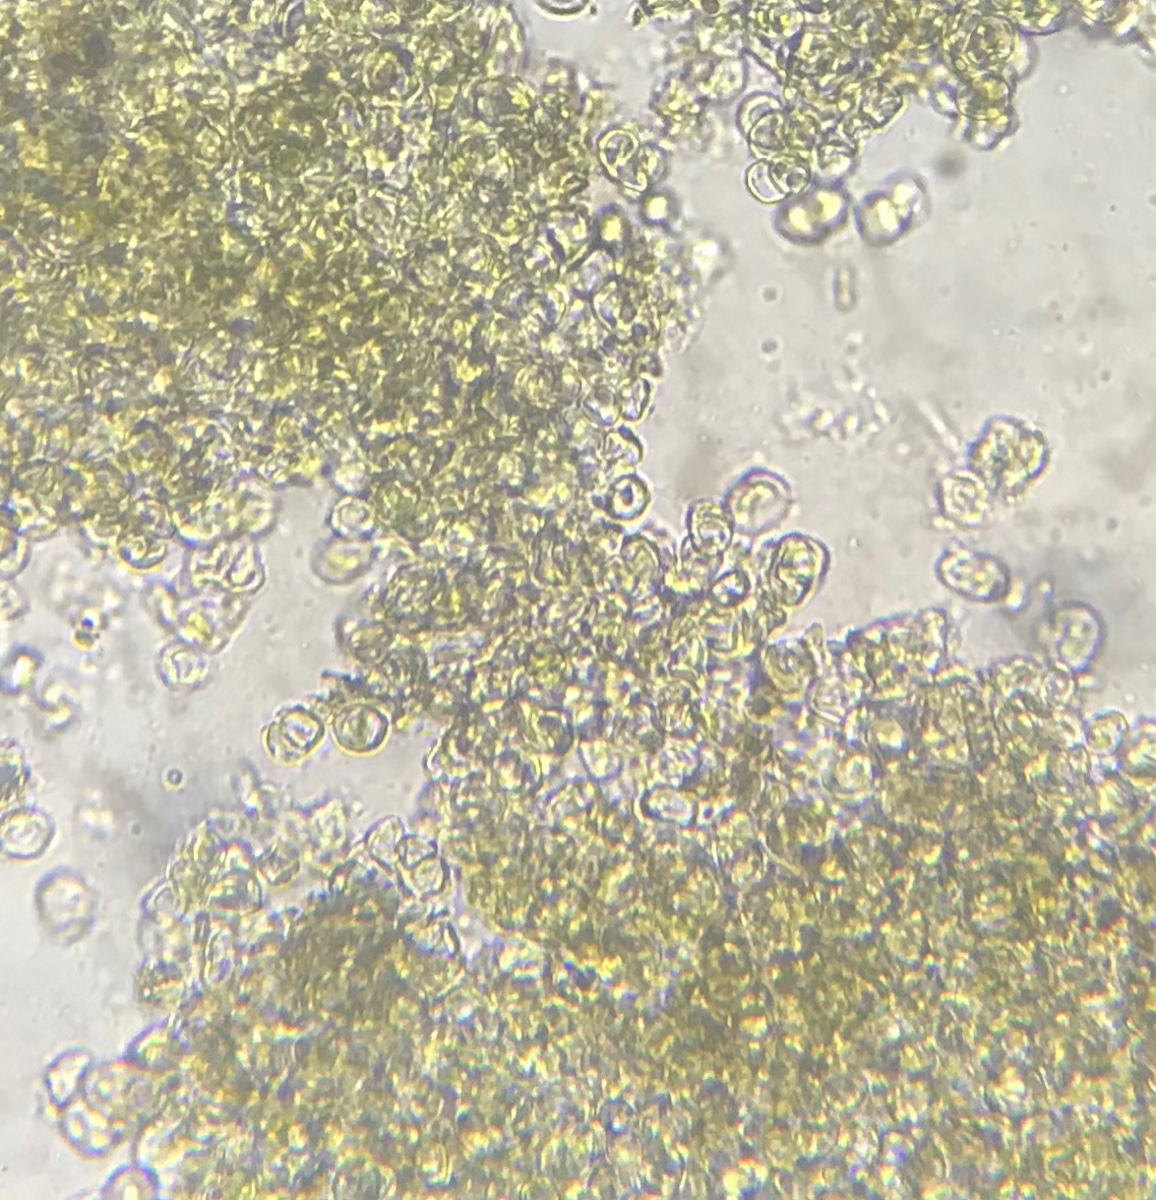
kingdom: Fungi
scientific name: Fungi
